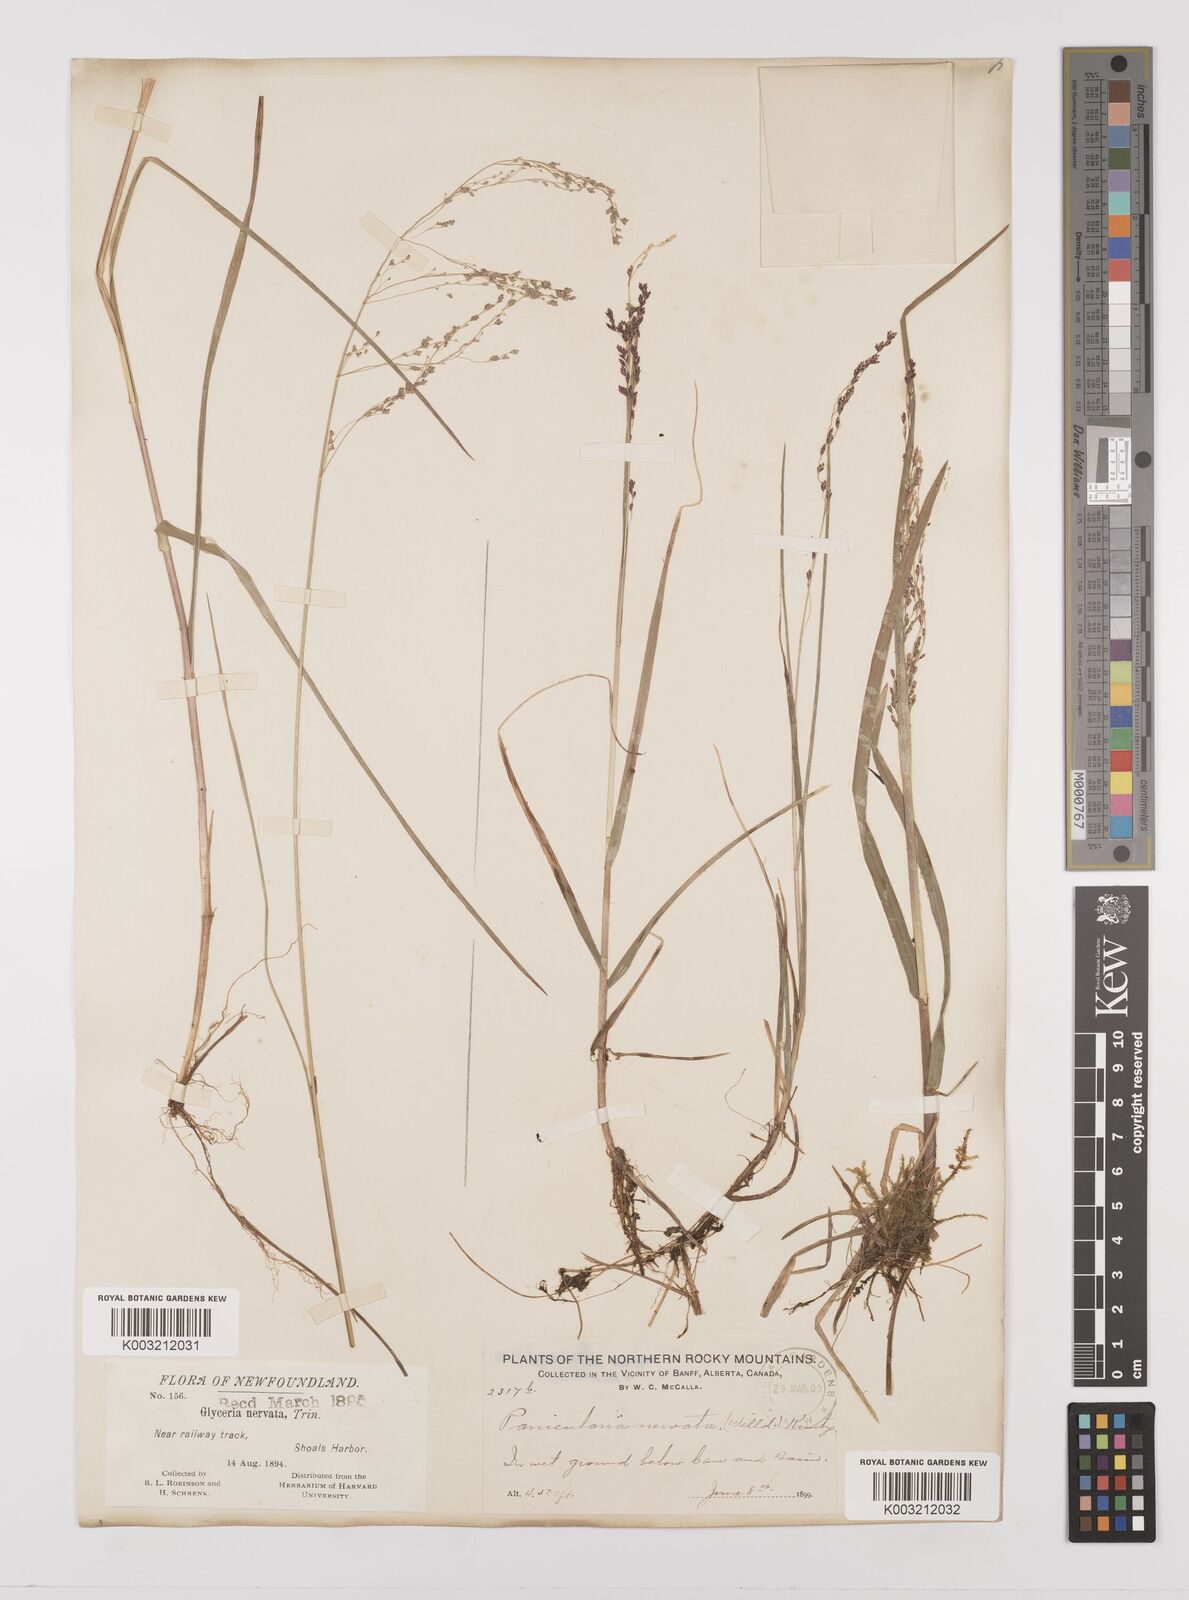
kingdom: Plantae
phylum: Tracheophyta
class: Liliopsida
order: Poales
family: Poaceae
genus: Glyceria
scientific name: Glyceria striata
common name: Fowl manna grass
